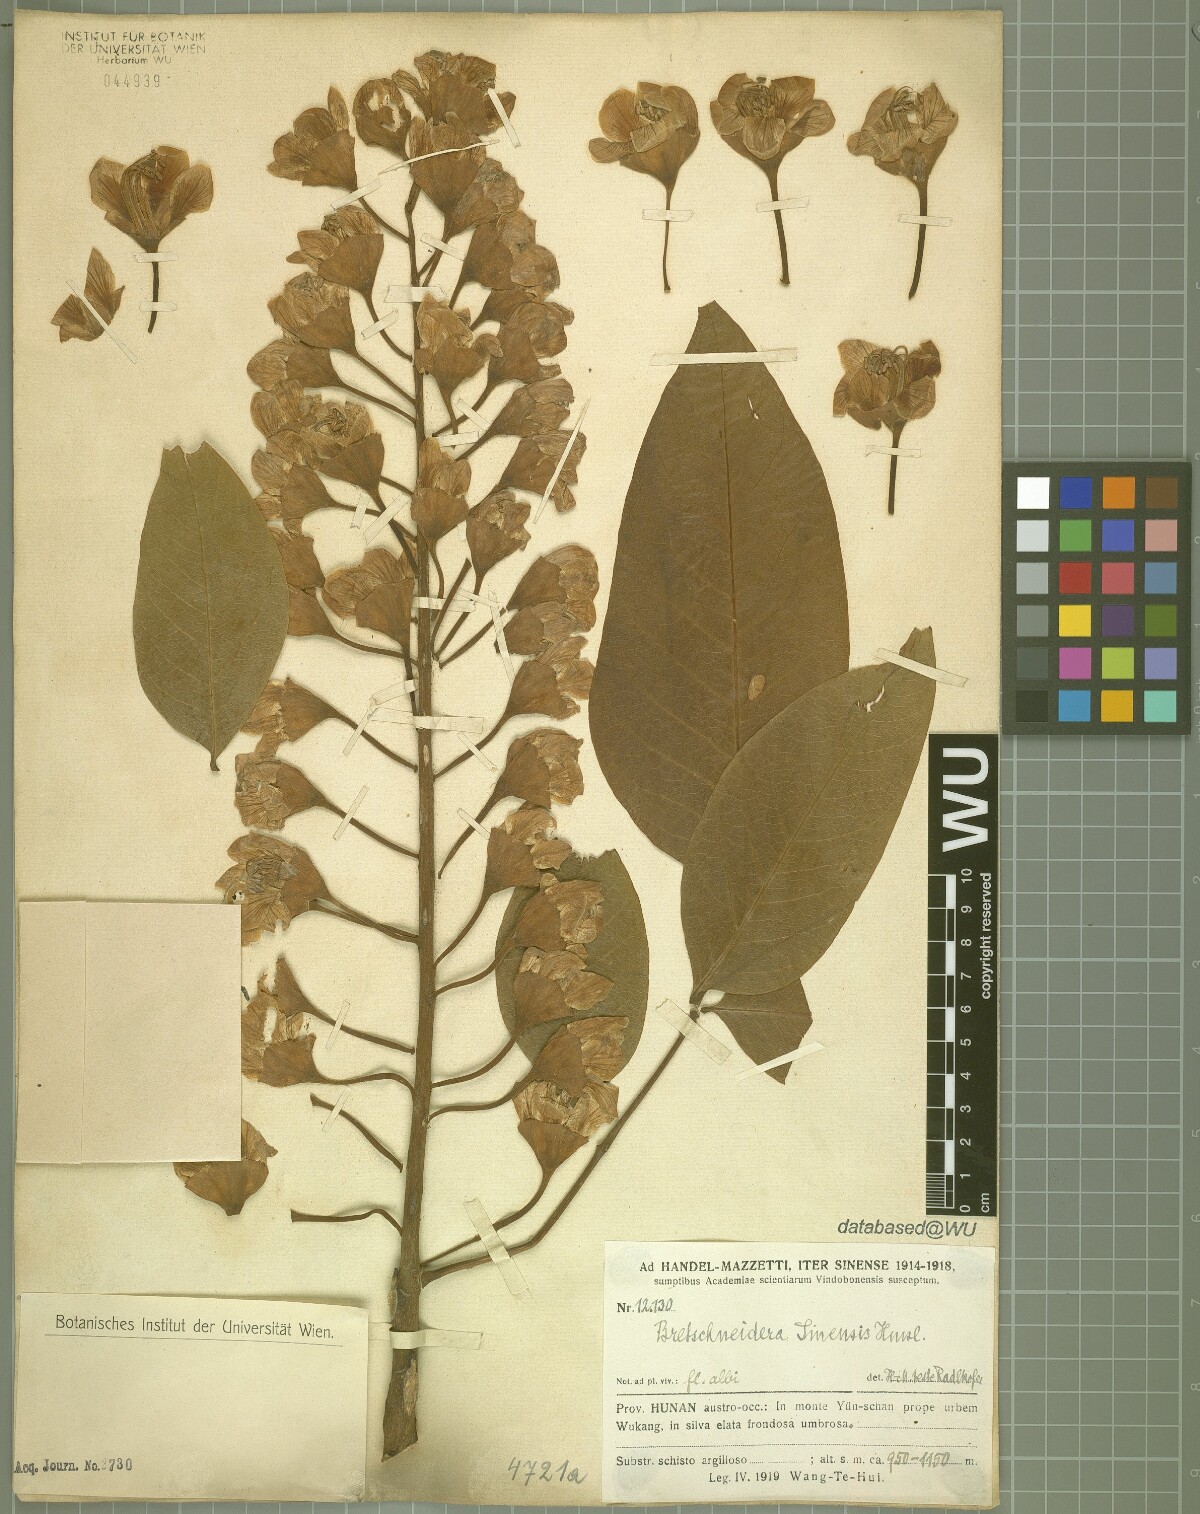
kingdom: Plantae
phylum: Tracheophyta
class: Magnoliopsida
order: Brassicales
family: Akaniaceae
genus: Bretschneidera
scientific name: Bretschneidera sinensis
